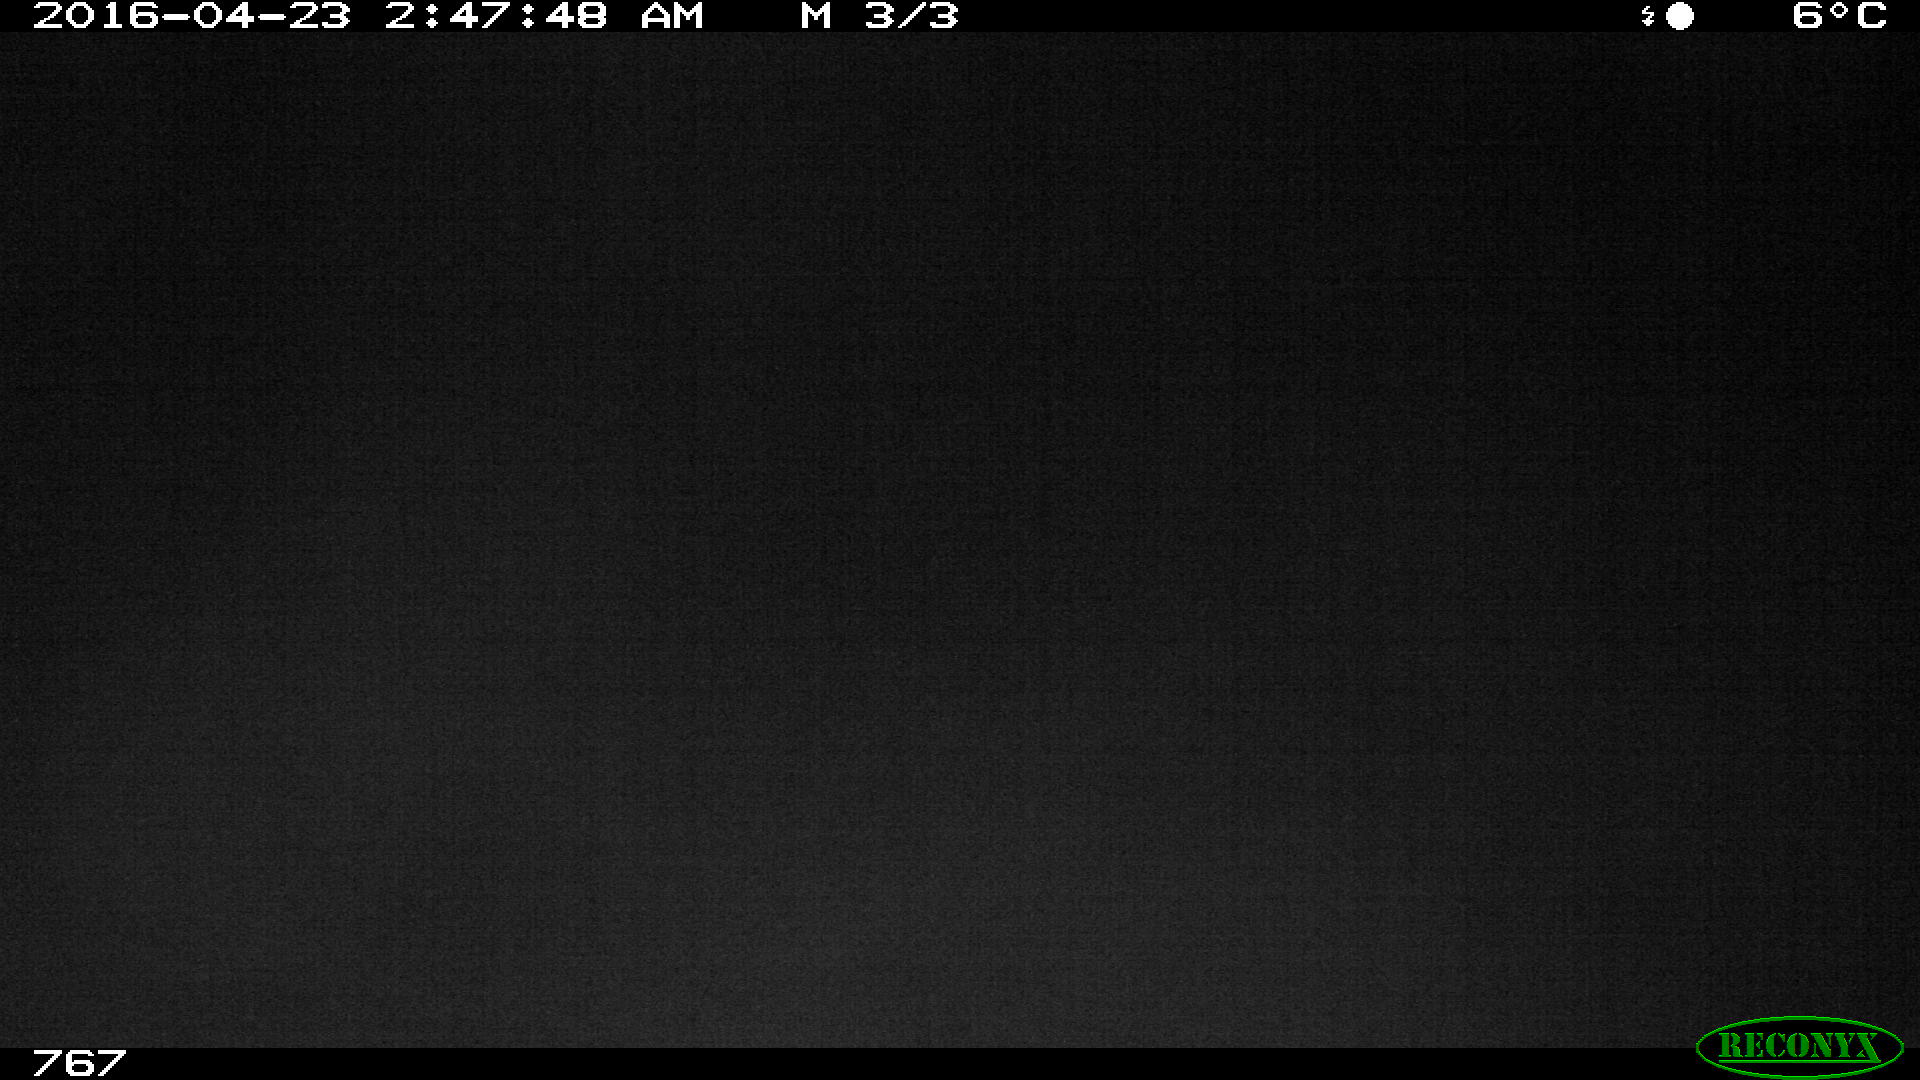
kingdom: Animalia
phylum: Chordata
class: Mammalia
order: Perissodactyla
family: Equidae
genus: Equus
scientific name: Equus caballus
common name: Horse
